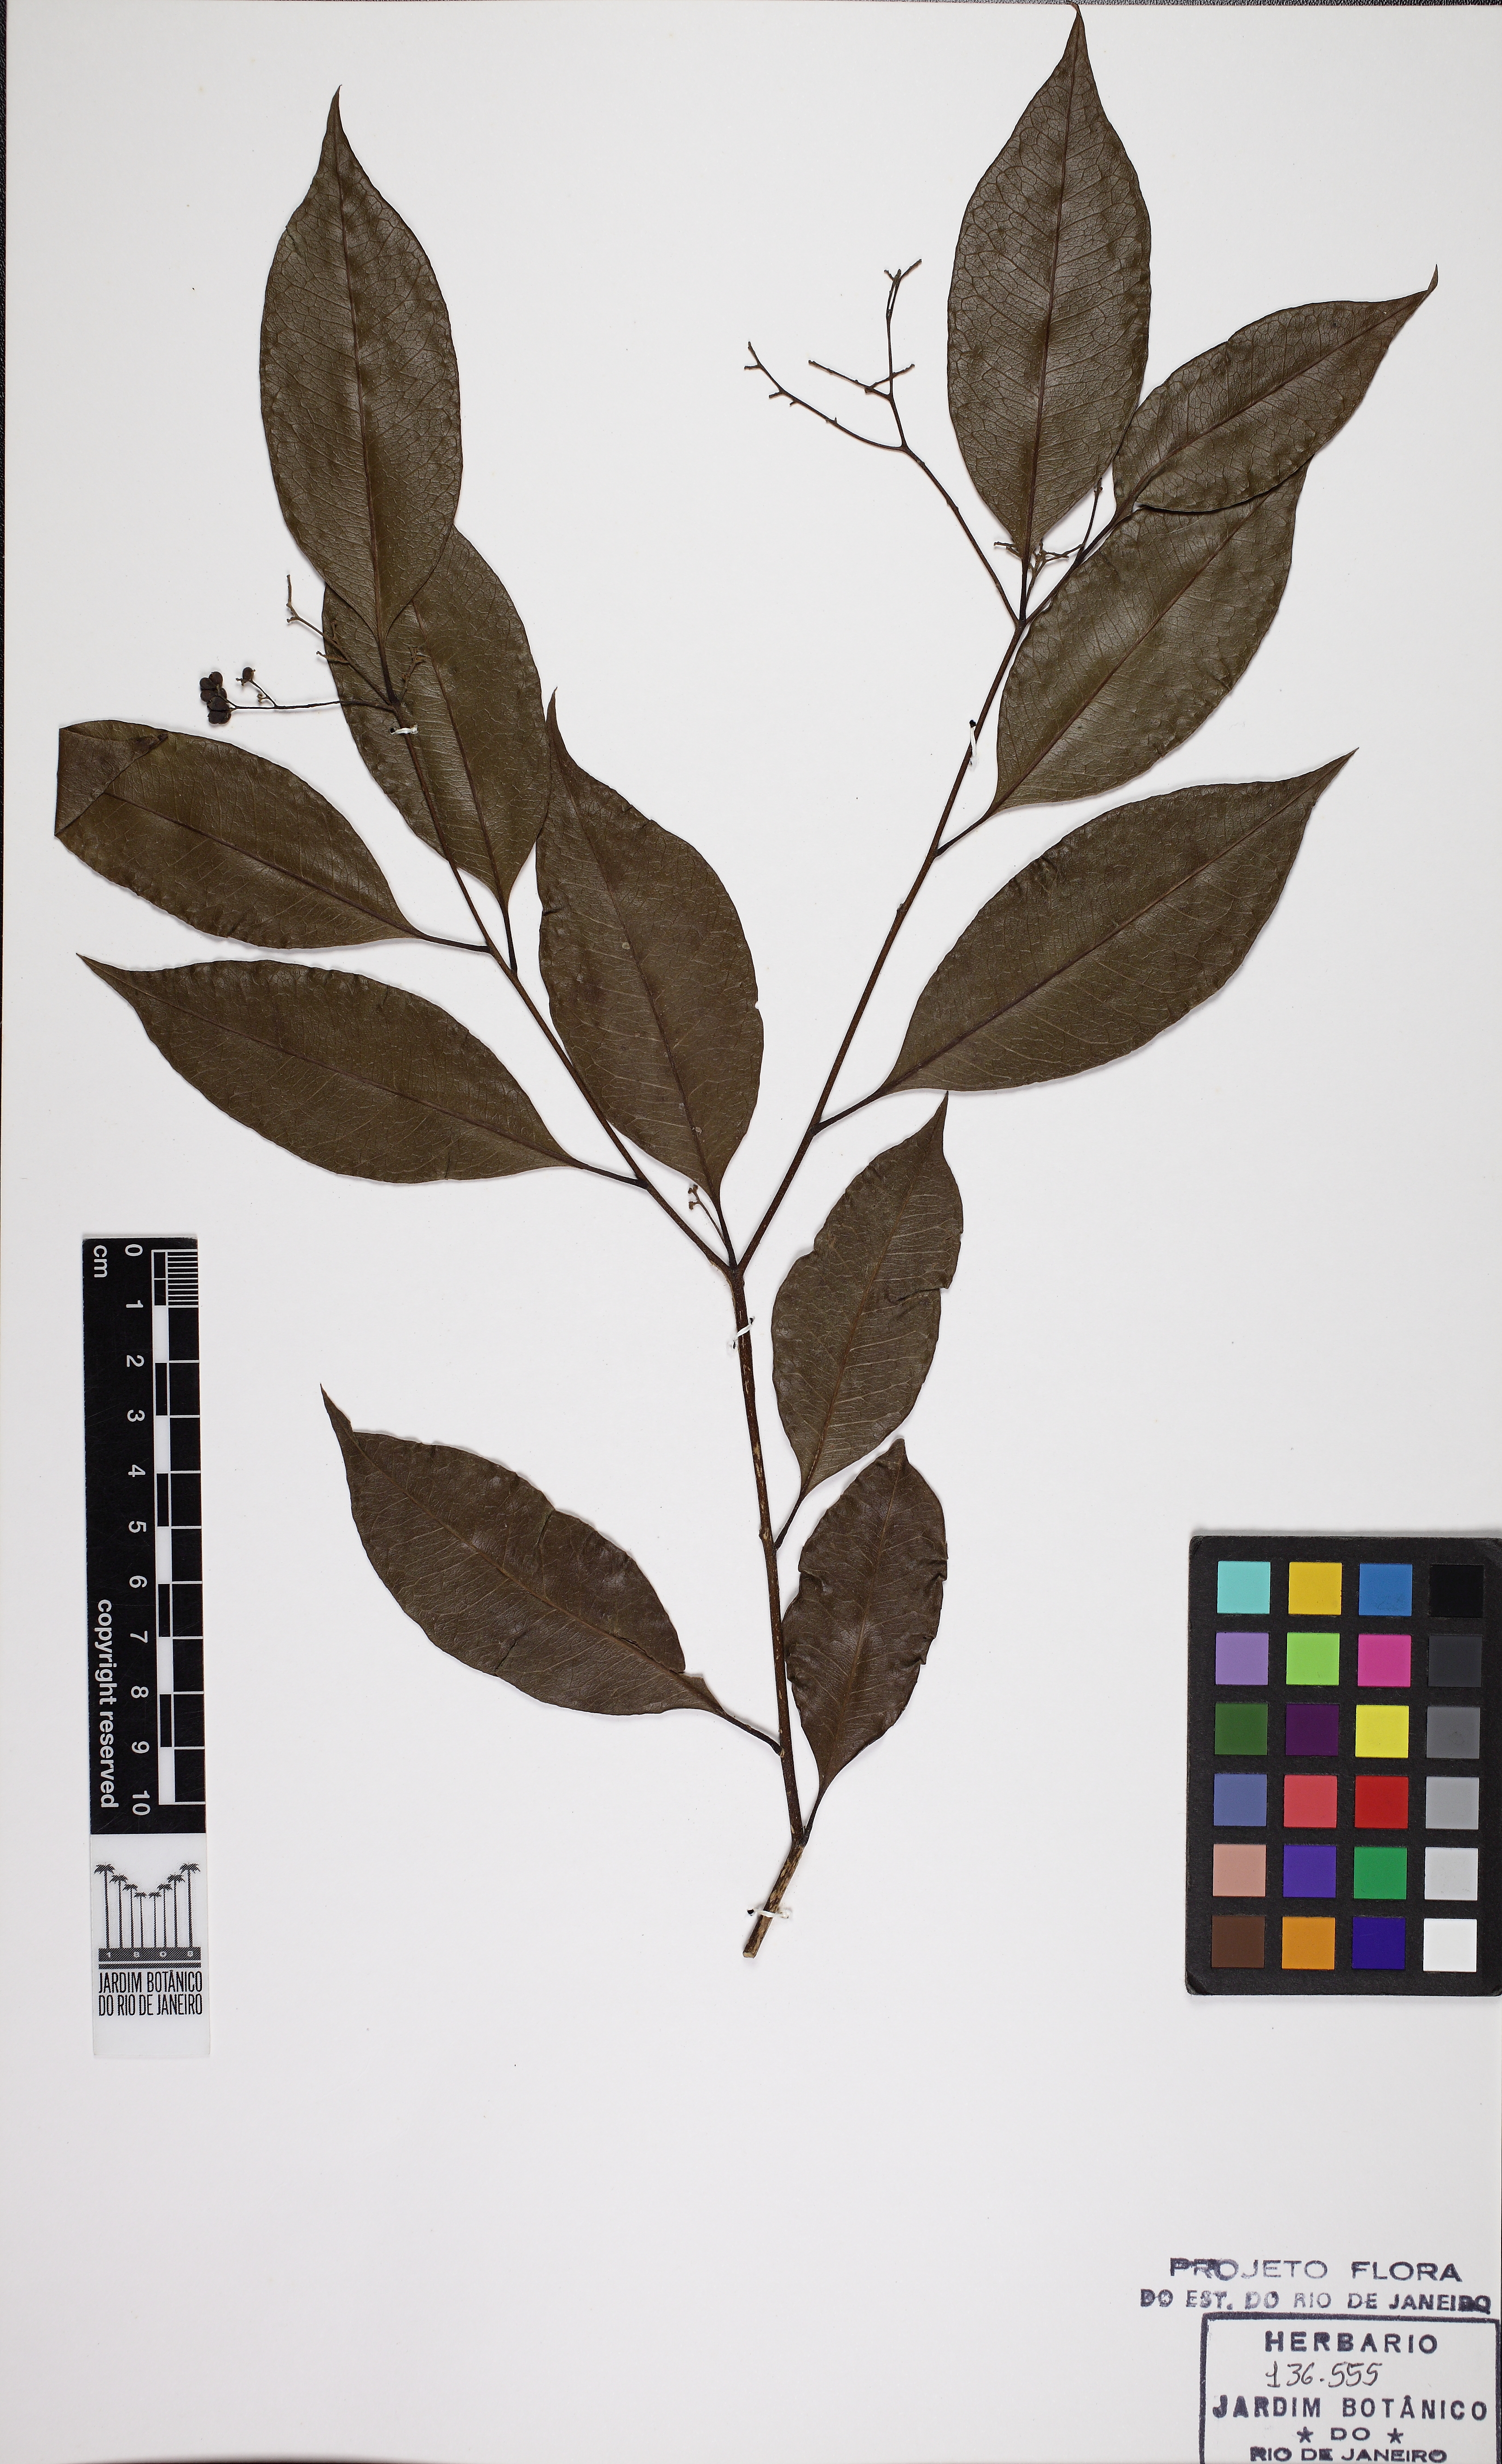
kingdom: Plantae
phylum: Tracheophyta
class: Magnoliopsida
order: Boraginales
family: Cordiaceae
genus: Cordia
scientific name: Cordia ochnacea
